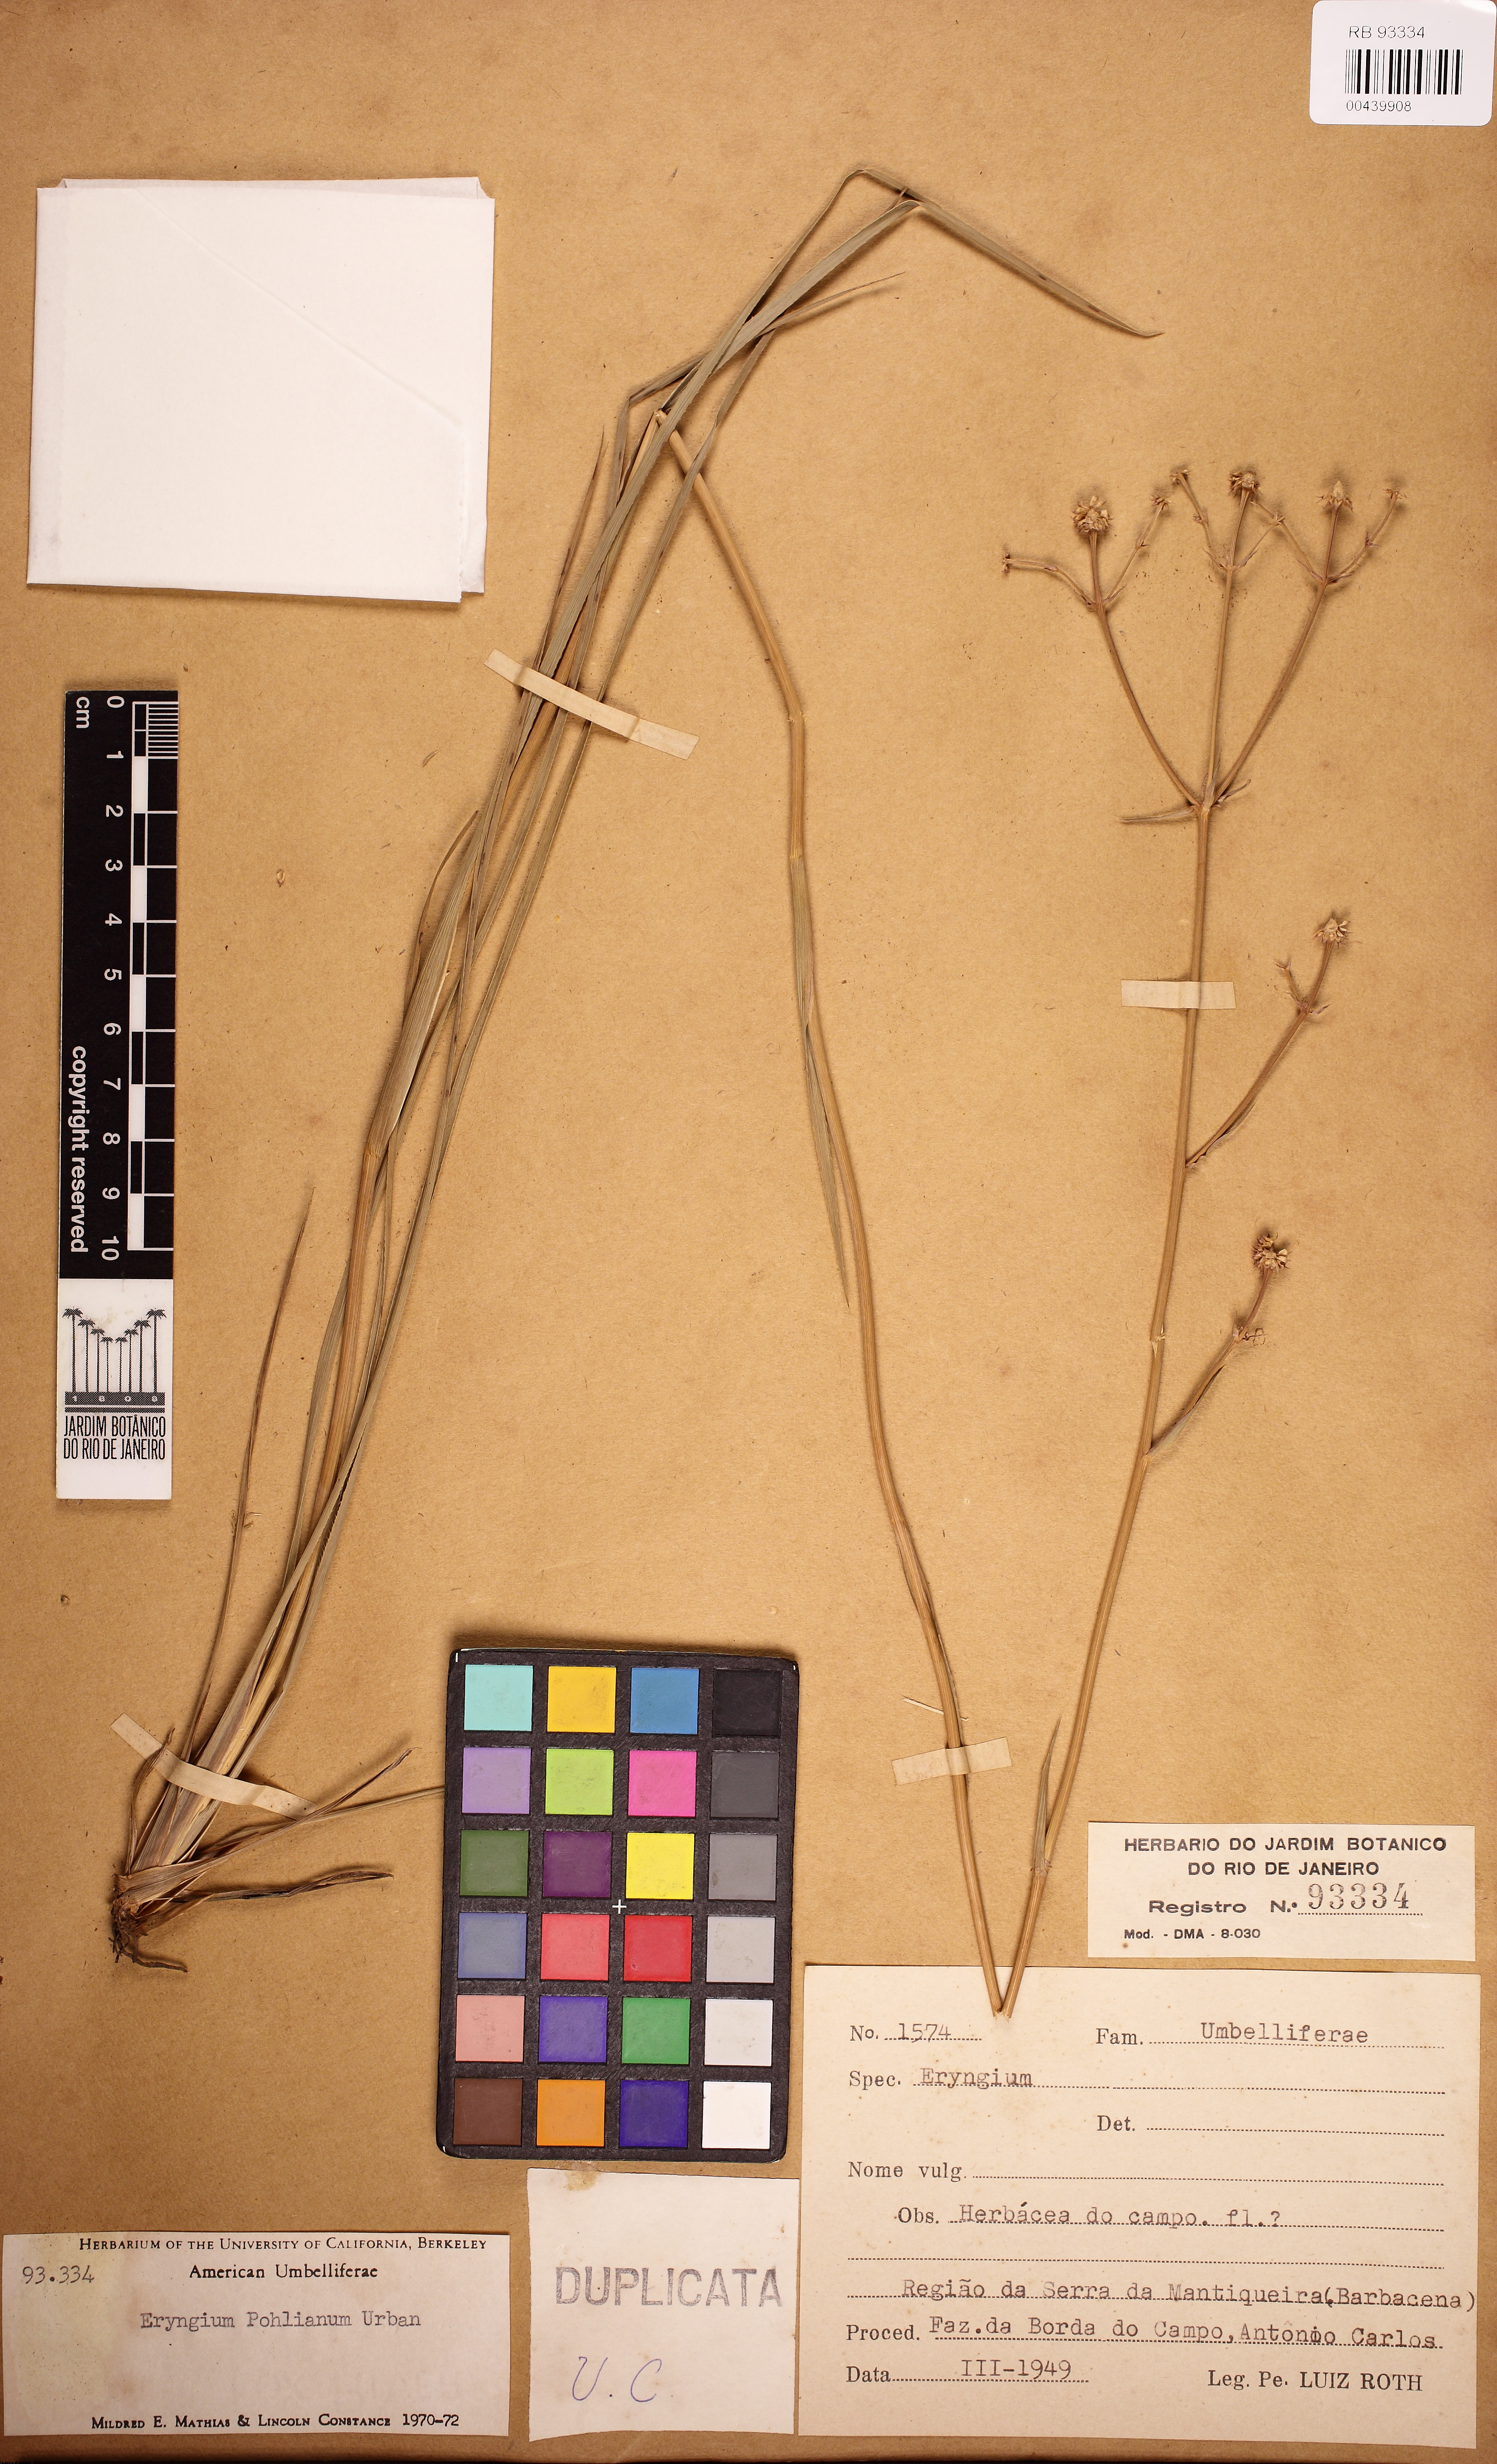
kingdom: Plantae
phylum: Tracheophyta
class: Magnoliopsida
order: Apiales
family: Apiaceae
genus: Eryngium
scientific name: Eryngium pohlianum
